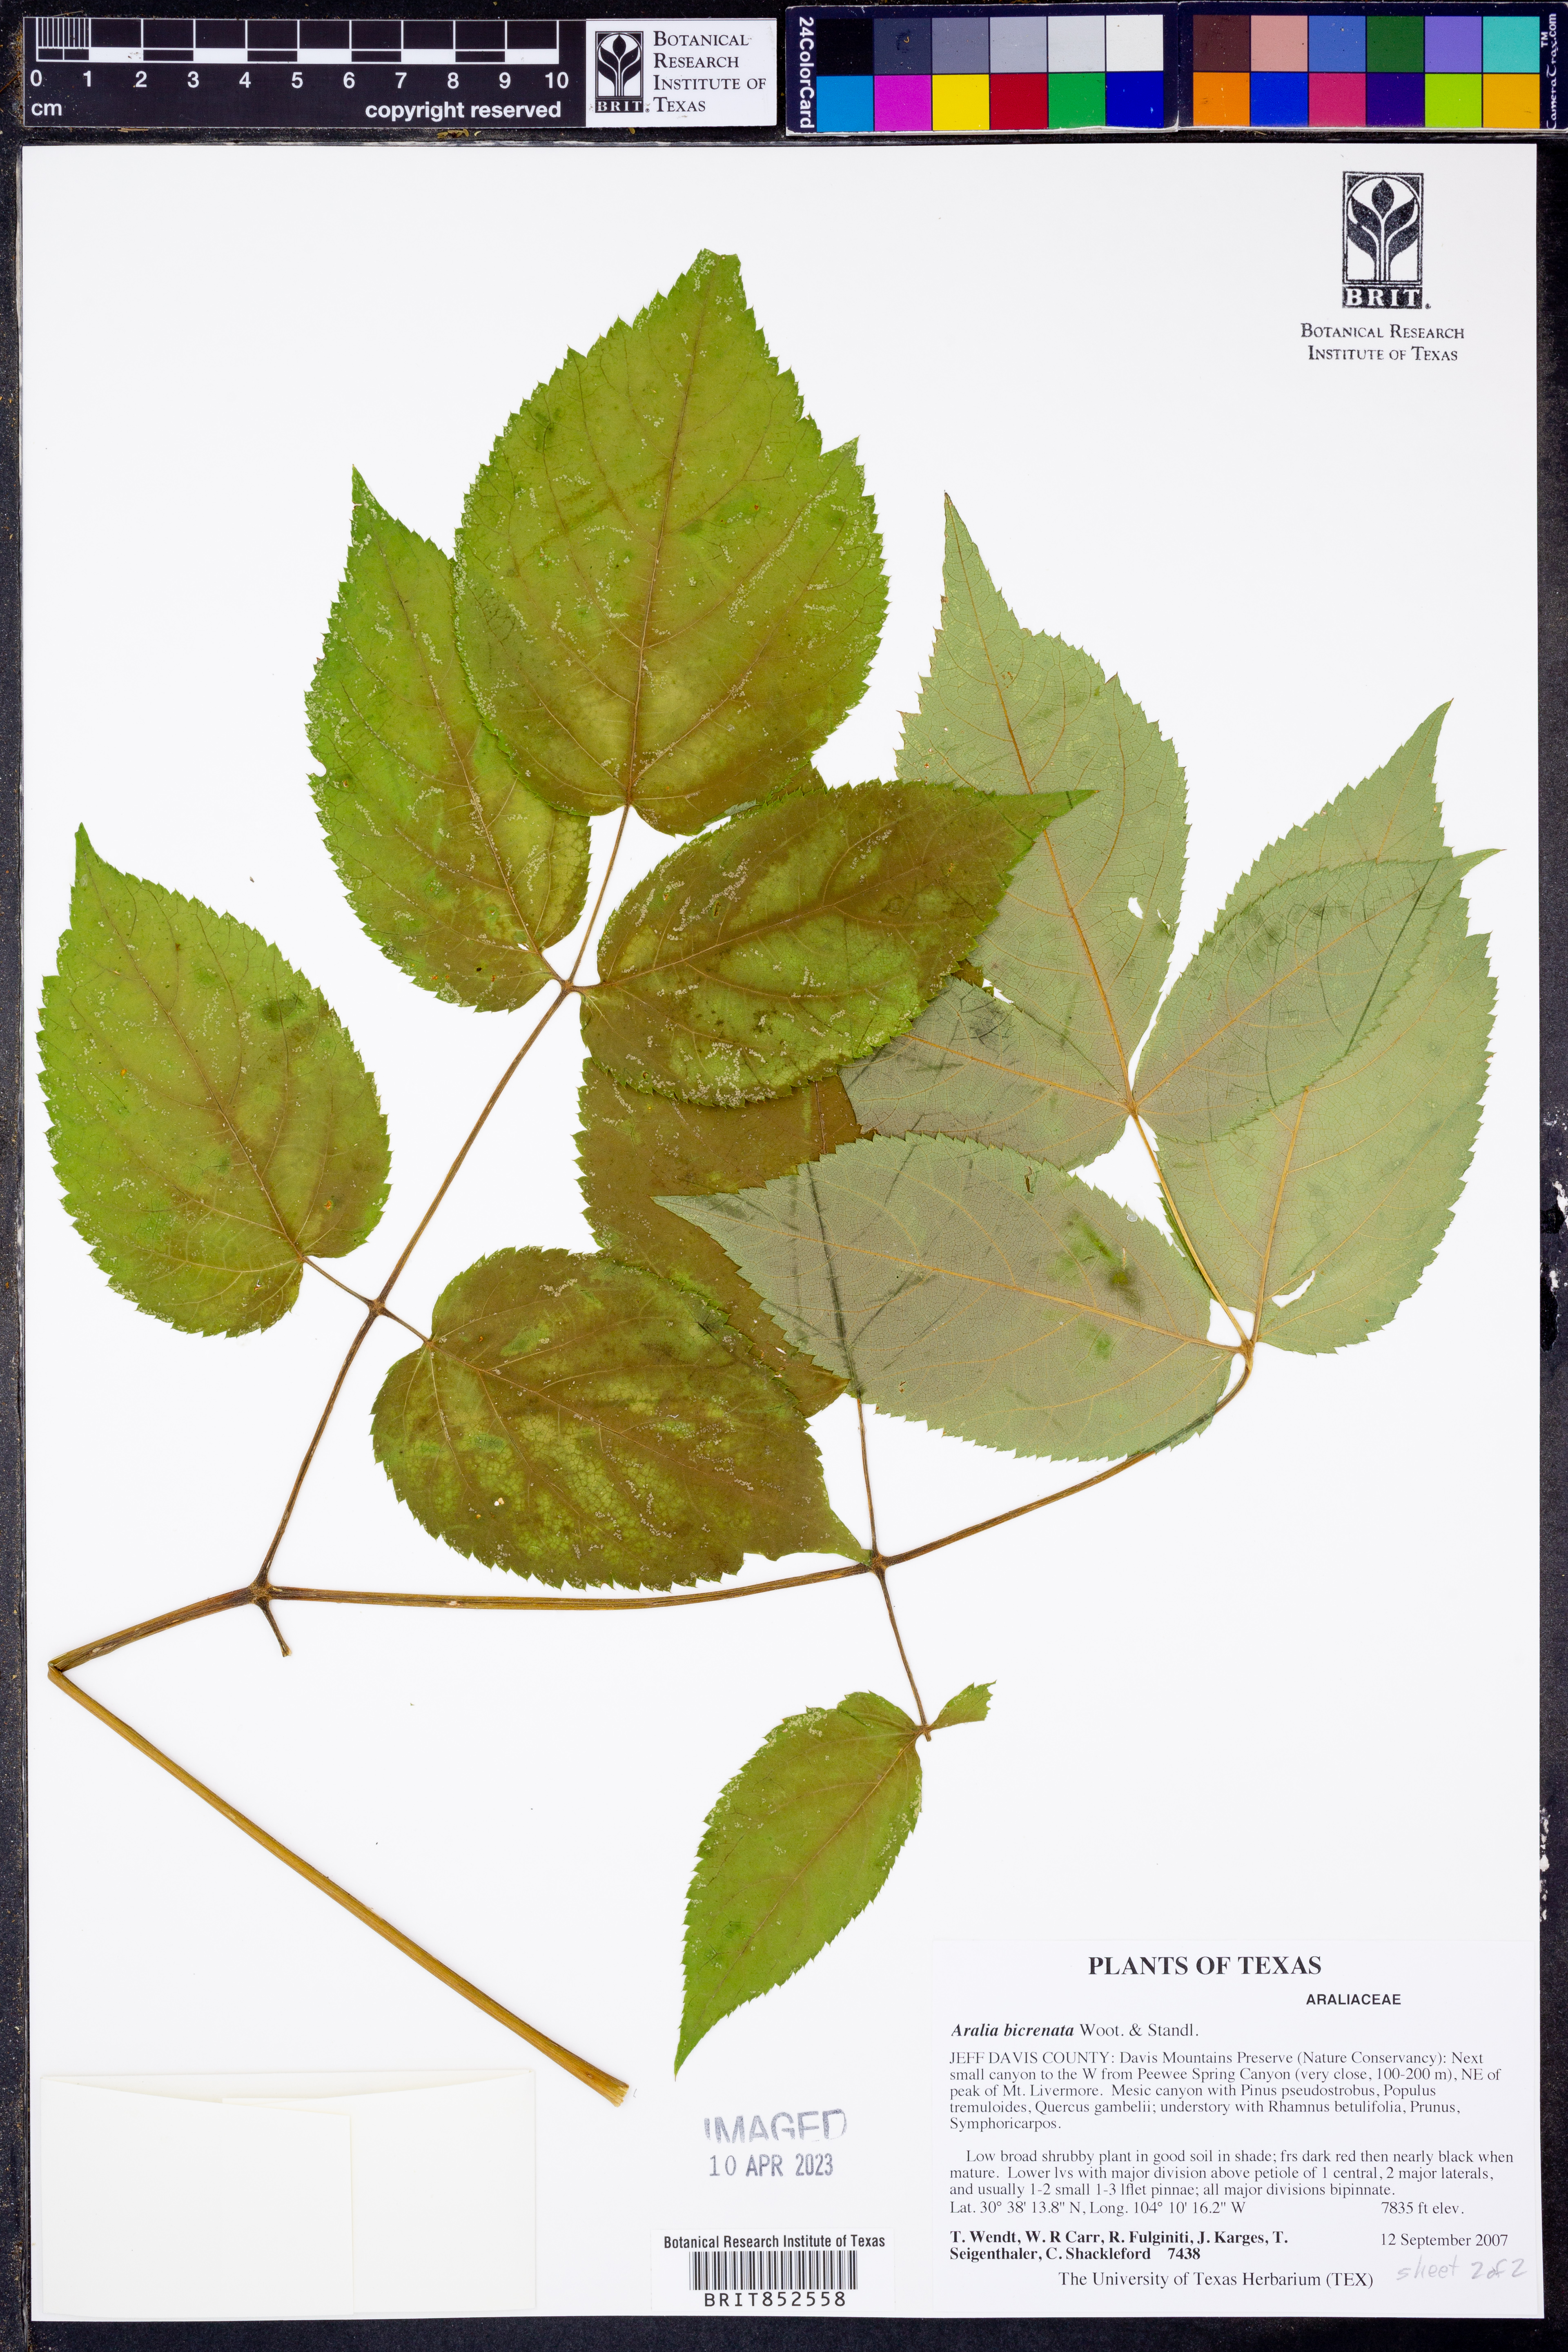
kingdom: Plantae
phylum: Tracheophyta
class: Magnoliopsida
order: Apiales
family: Araliaceae
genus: Aralia
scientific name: Aralia bicrenata
